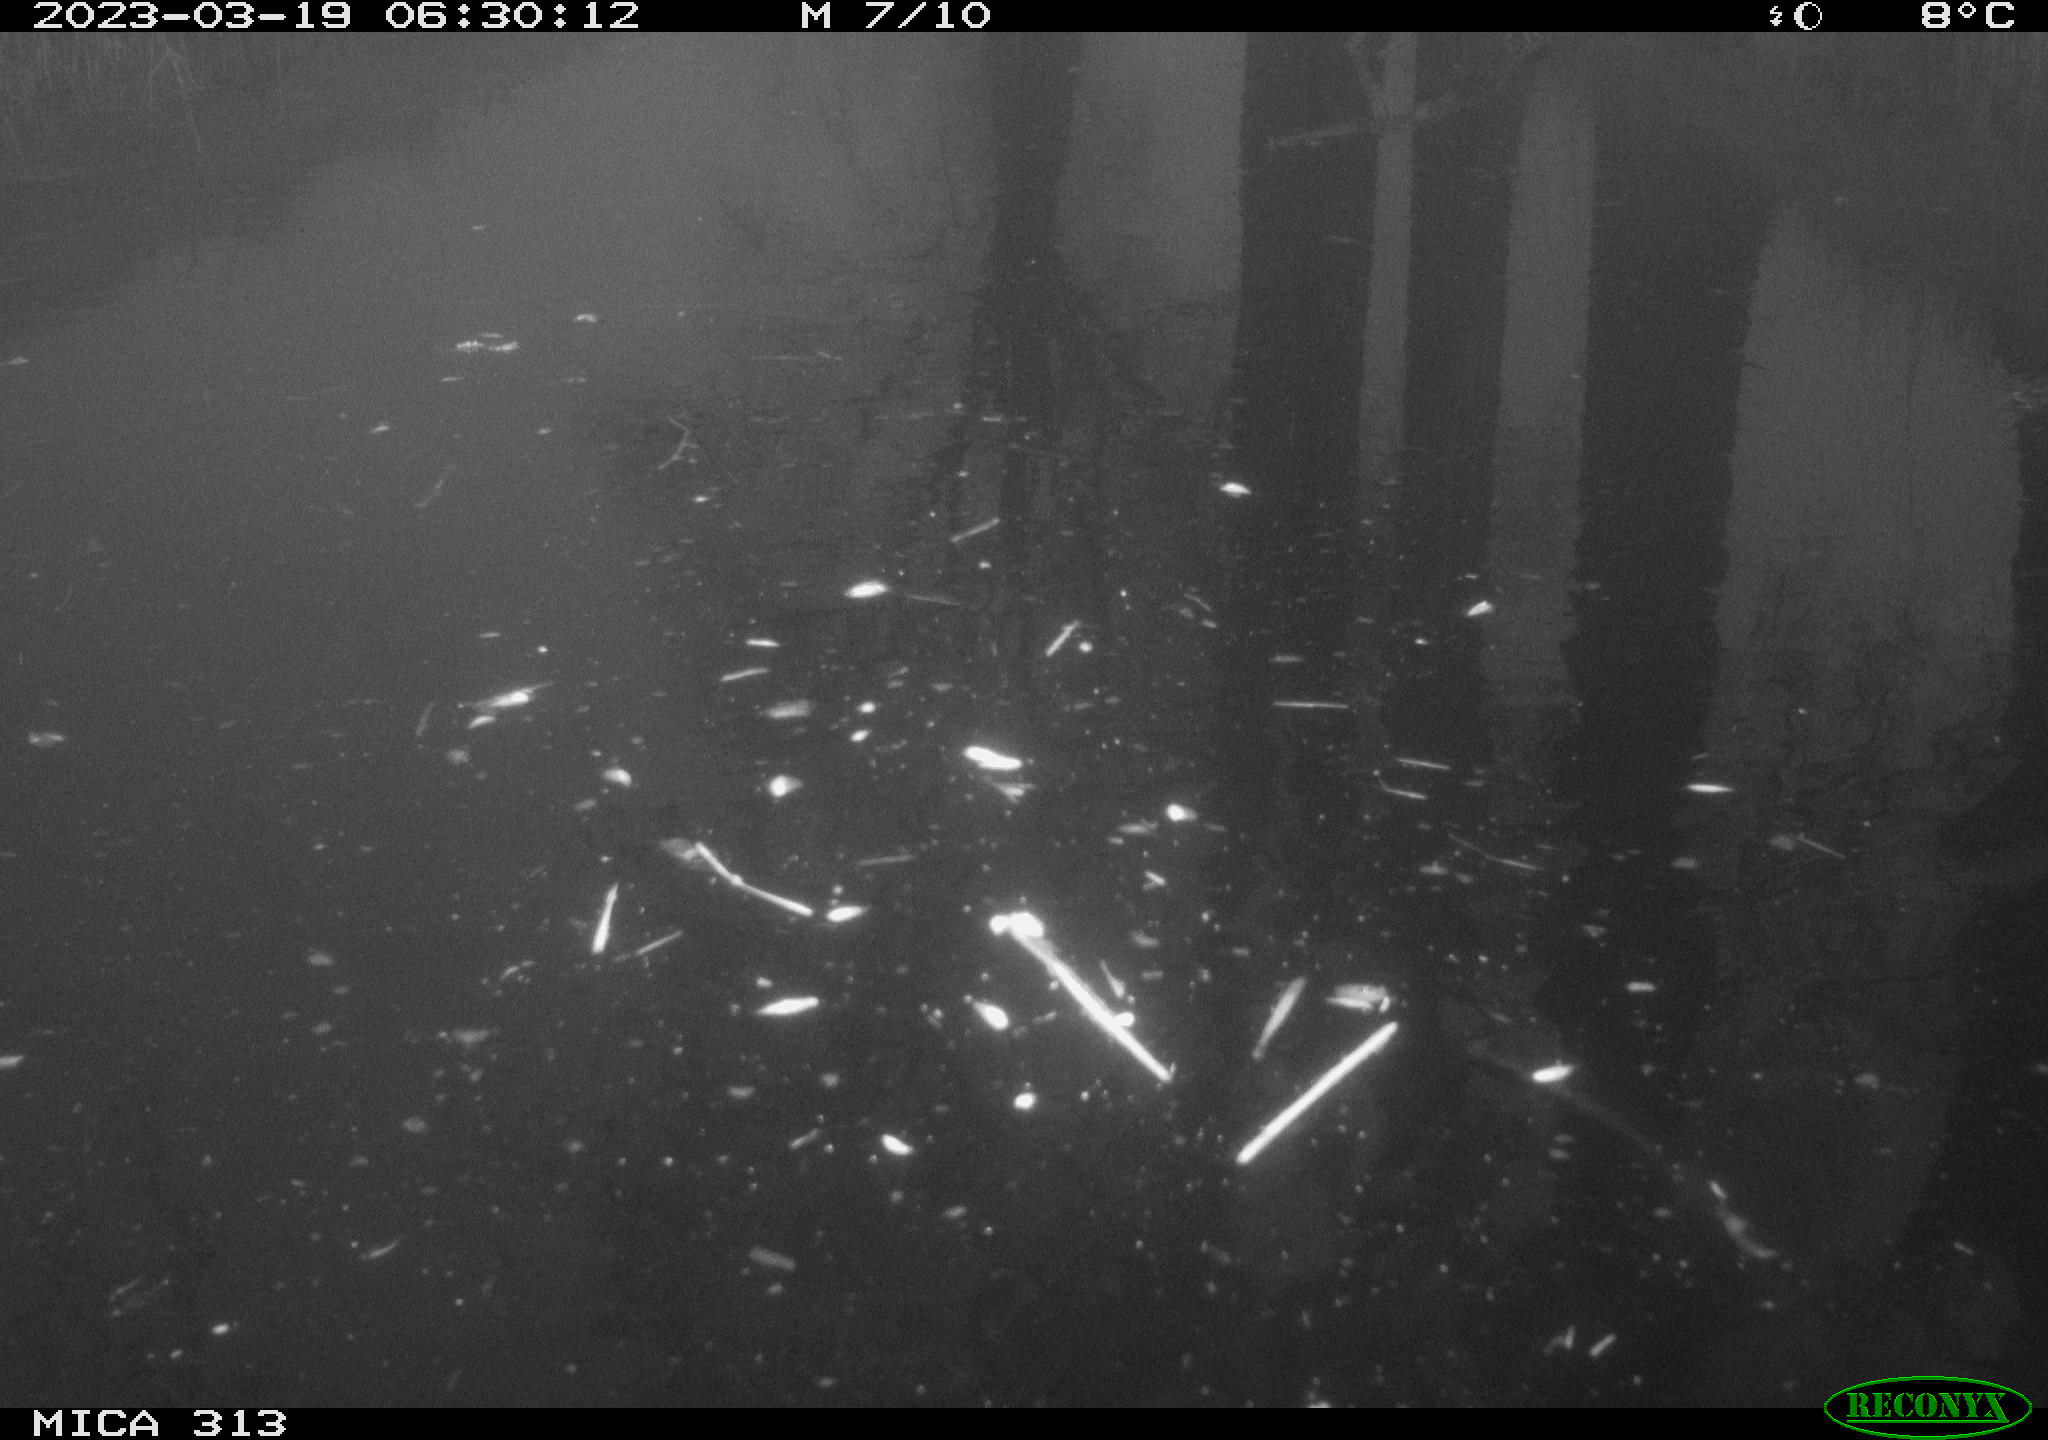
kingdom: Animalia
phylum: Chordata
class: Aves
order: Gruiformes
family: Rallidae
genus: Gallinula
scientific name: Gallinula chloropus
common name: Common moorhen
